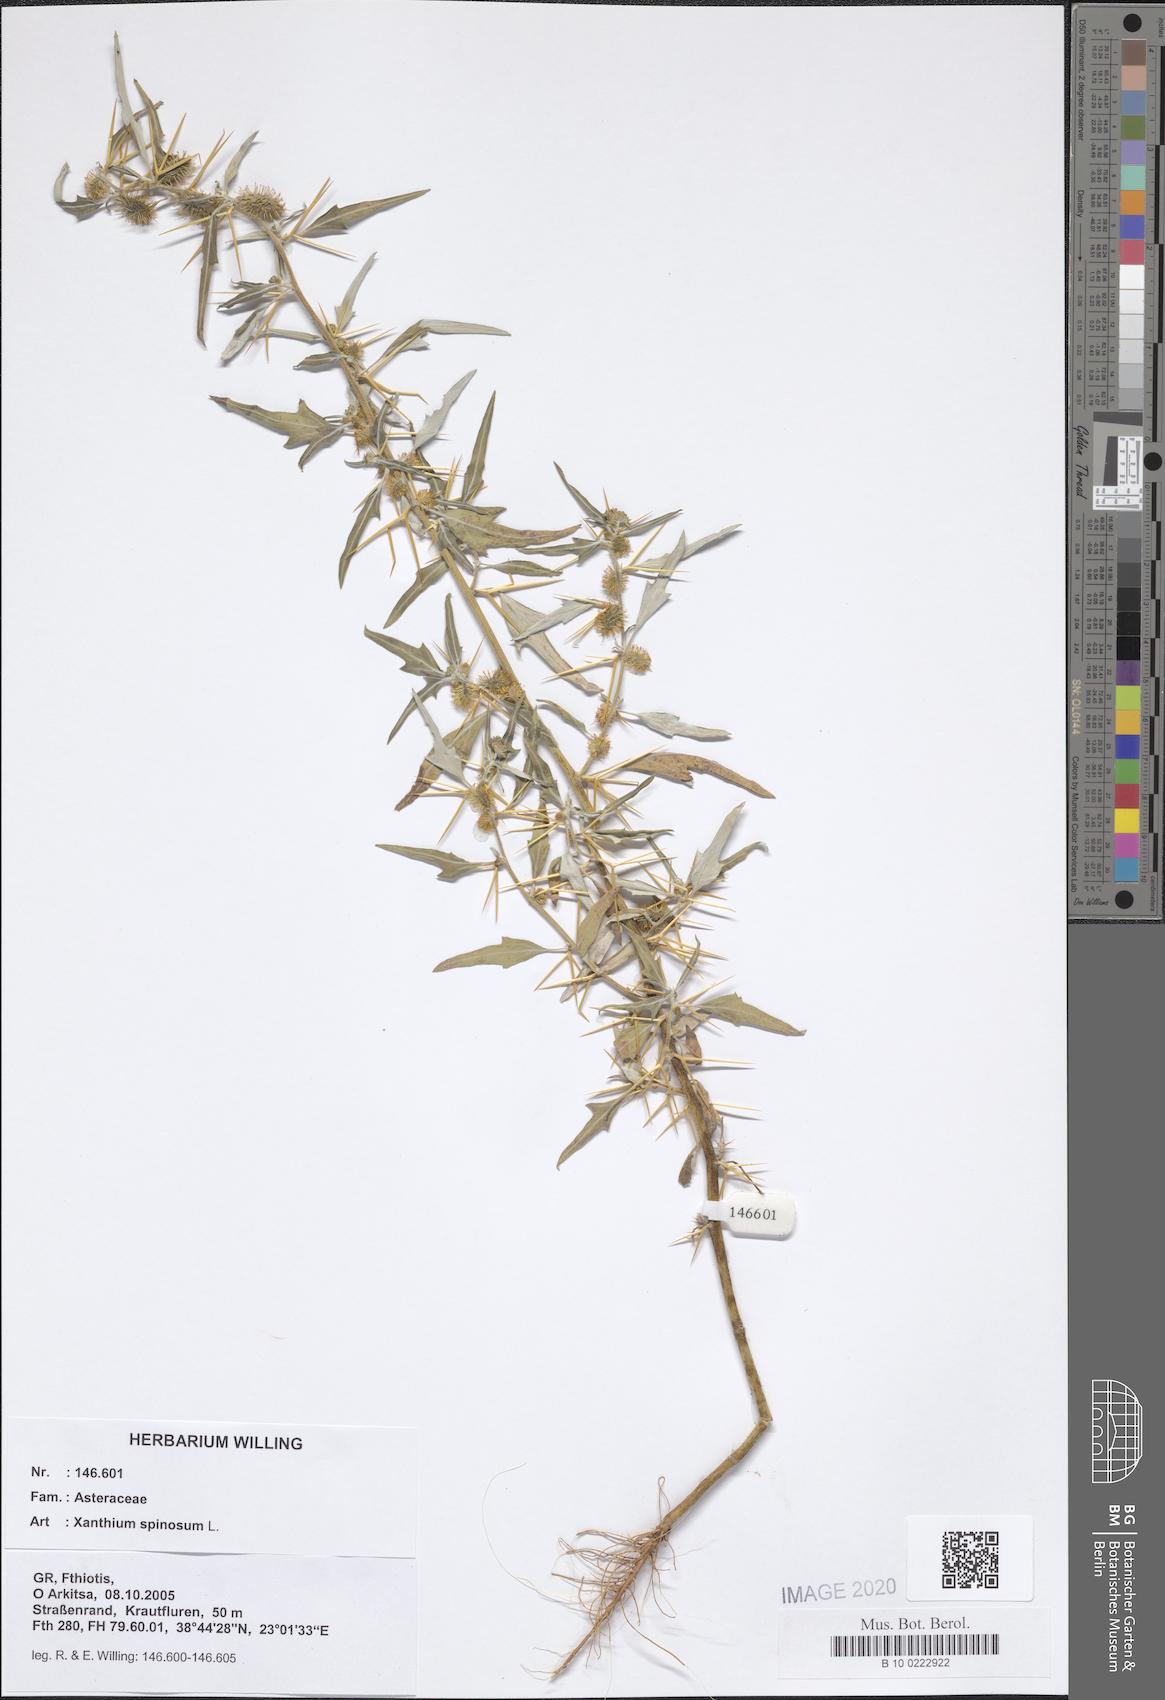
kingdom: Plantae
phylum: Tracheophyta
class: Magnoliopsida
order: Asterales
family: Asteraceae
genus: Xanthium
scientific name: Xanthium spinosum
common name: Spiny cocklebur
